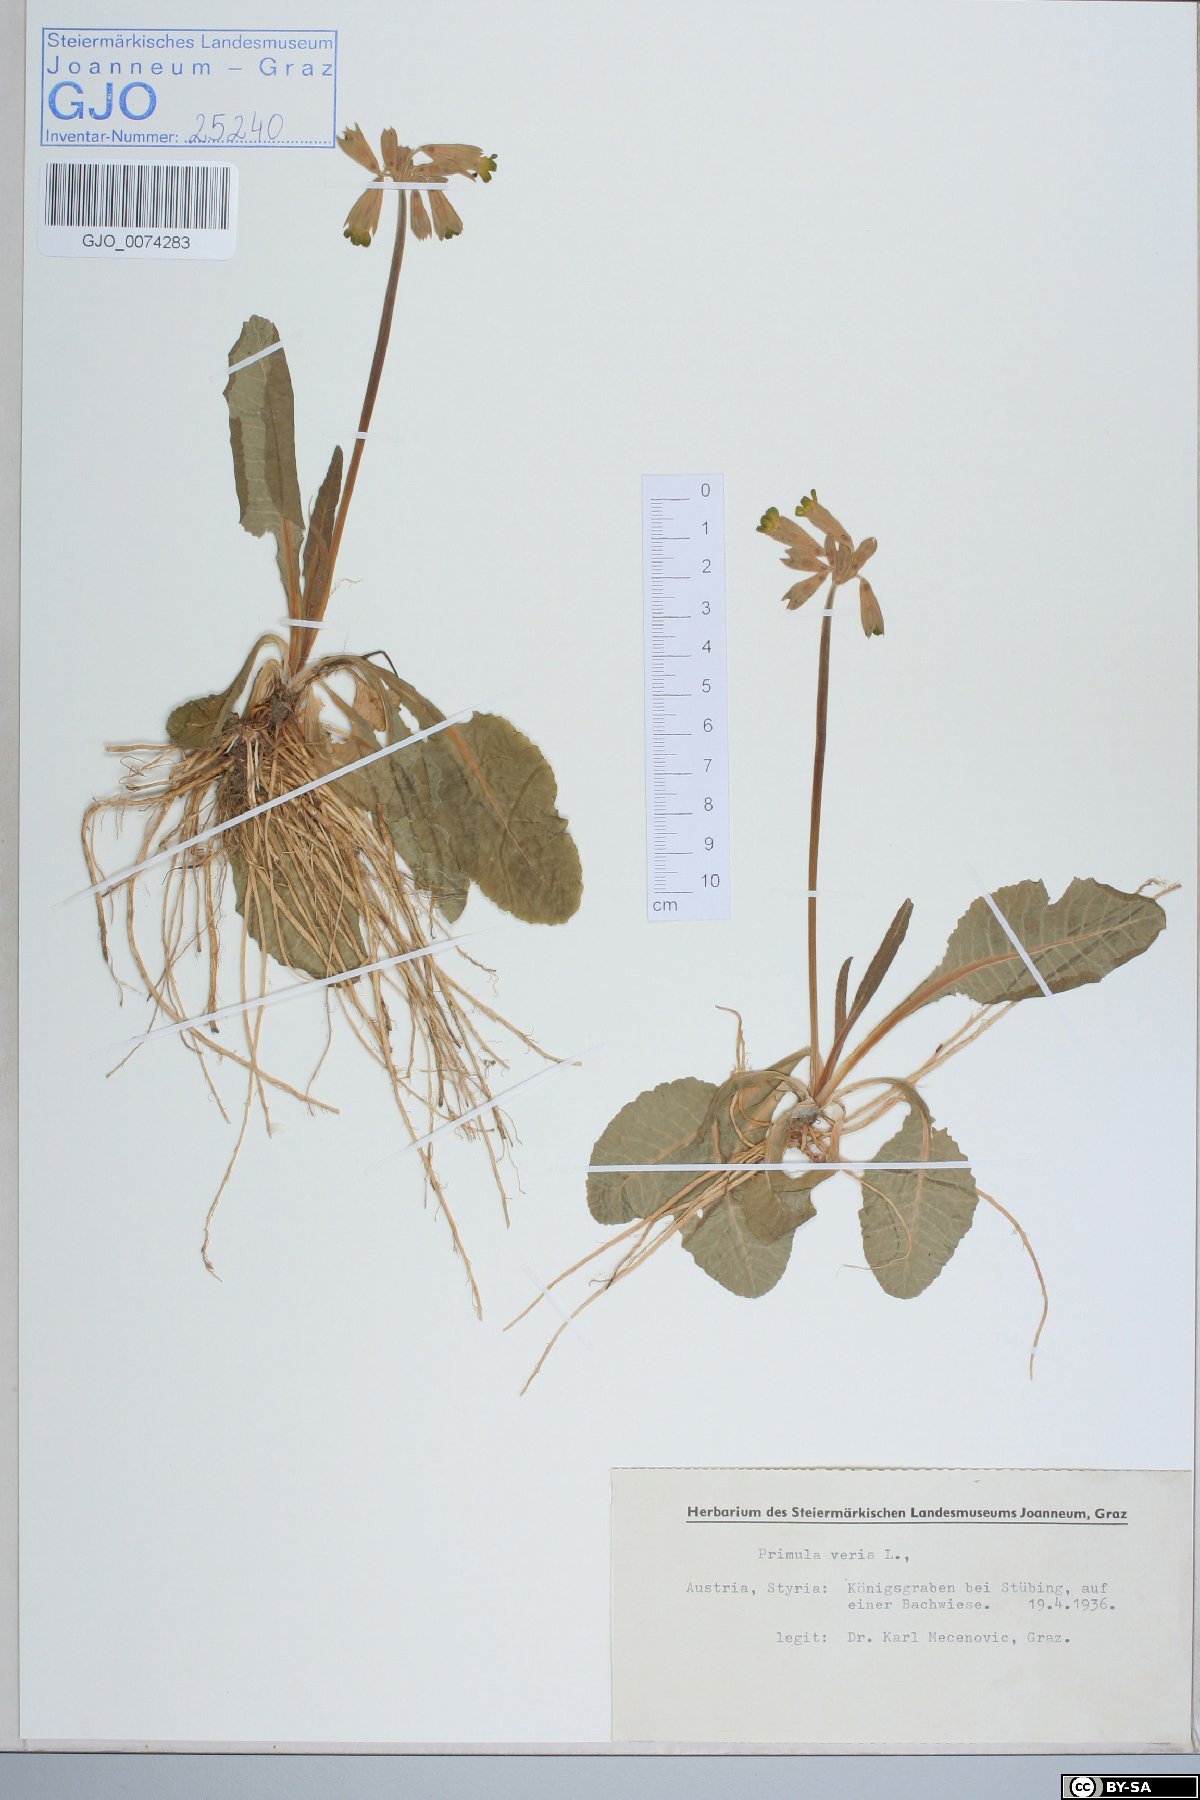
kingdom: Plantae
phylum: Tracheophyta
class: Magnoliopsida
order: Ericales
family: Primulaceae
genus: Primula
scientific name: Primula veris
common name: Cowslip
